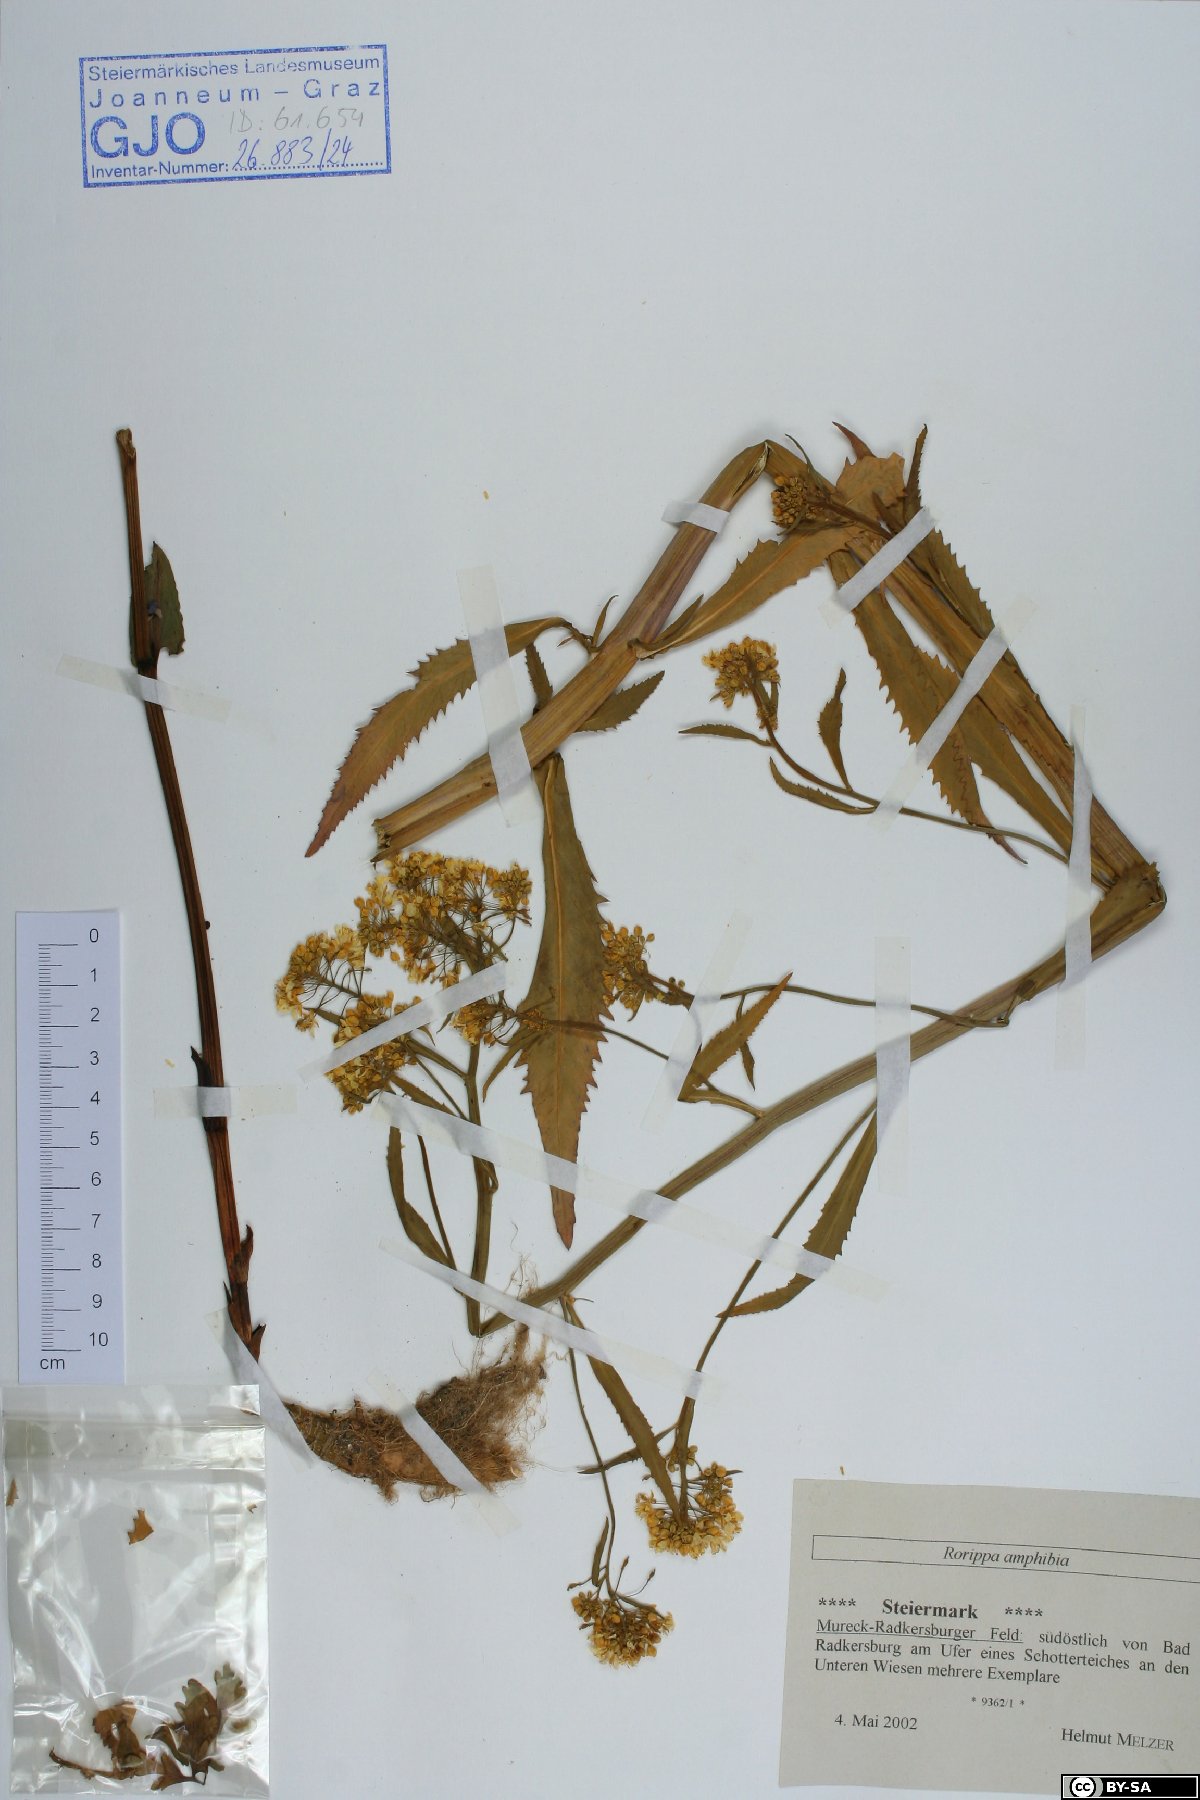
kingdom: Plantae
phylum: Tracheophyta
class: Magnoliopsida
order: Brassicales
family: Brassicaceae
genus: Rorippa
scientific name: Rorippa amphibia
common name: Great yellow-cress
